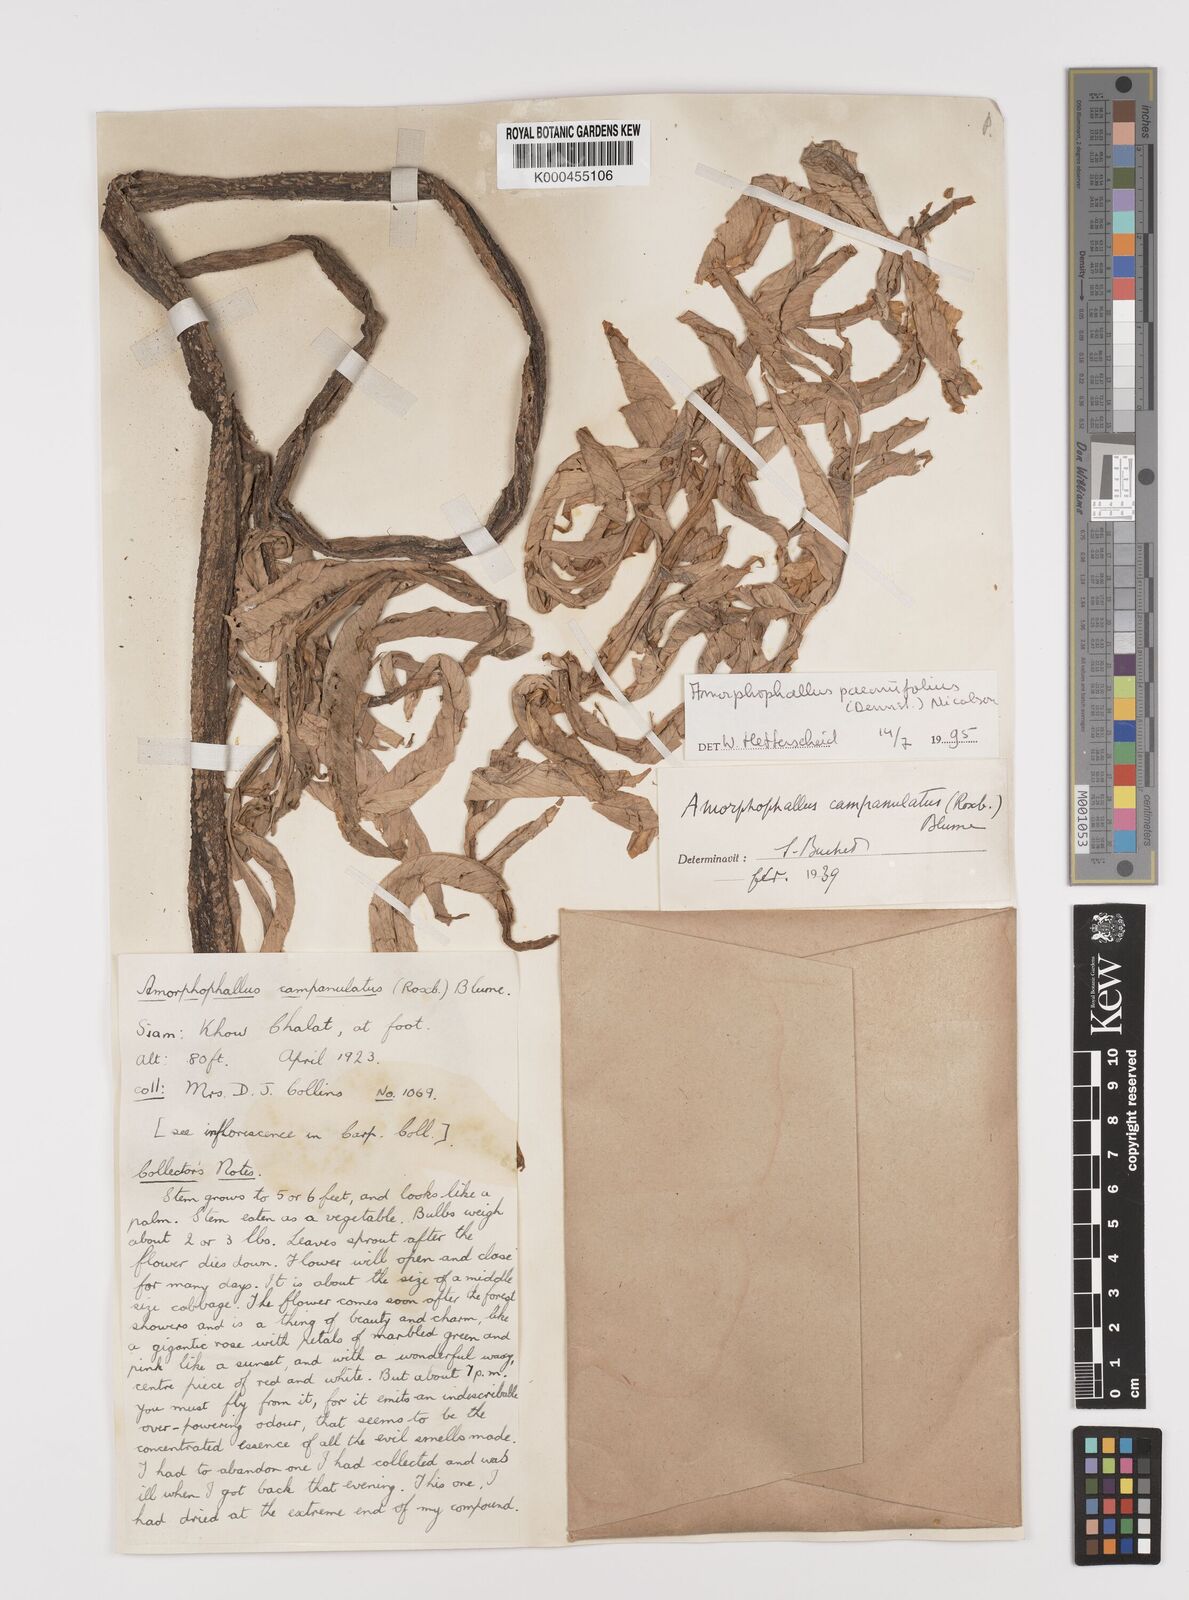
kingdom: Plantae
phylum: Tracheophyta
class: Liliopsida
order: Alismatales
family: Araceae
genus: Amorphophallus
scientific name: Amorphophallus paeoniifolius
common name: Telinga-potato
